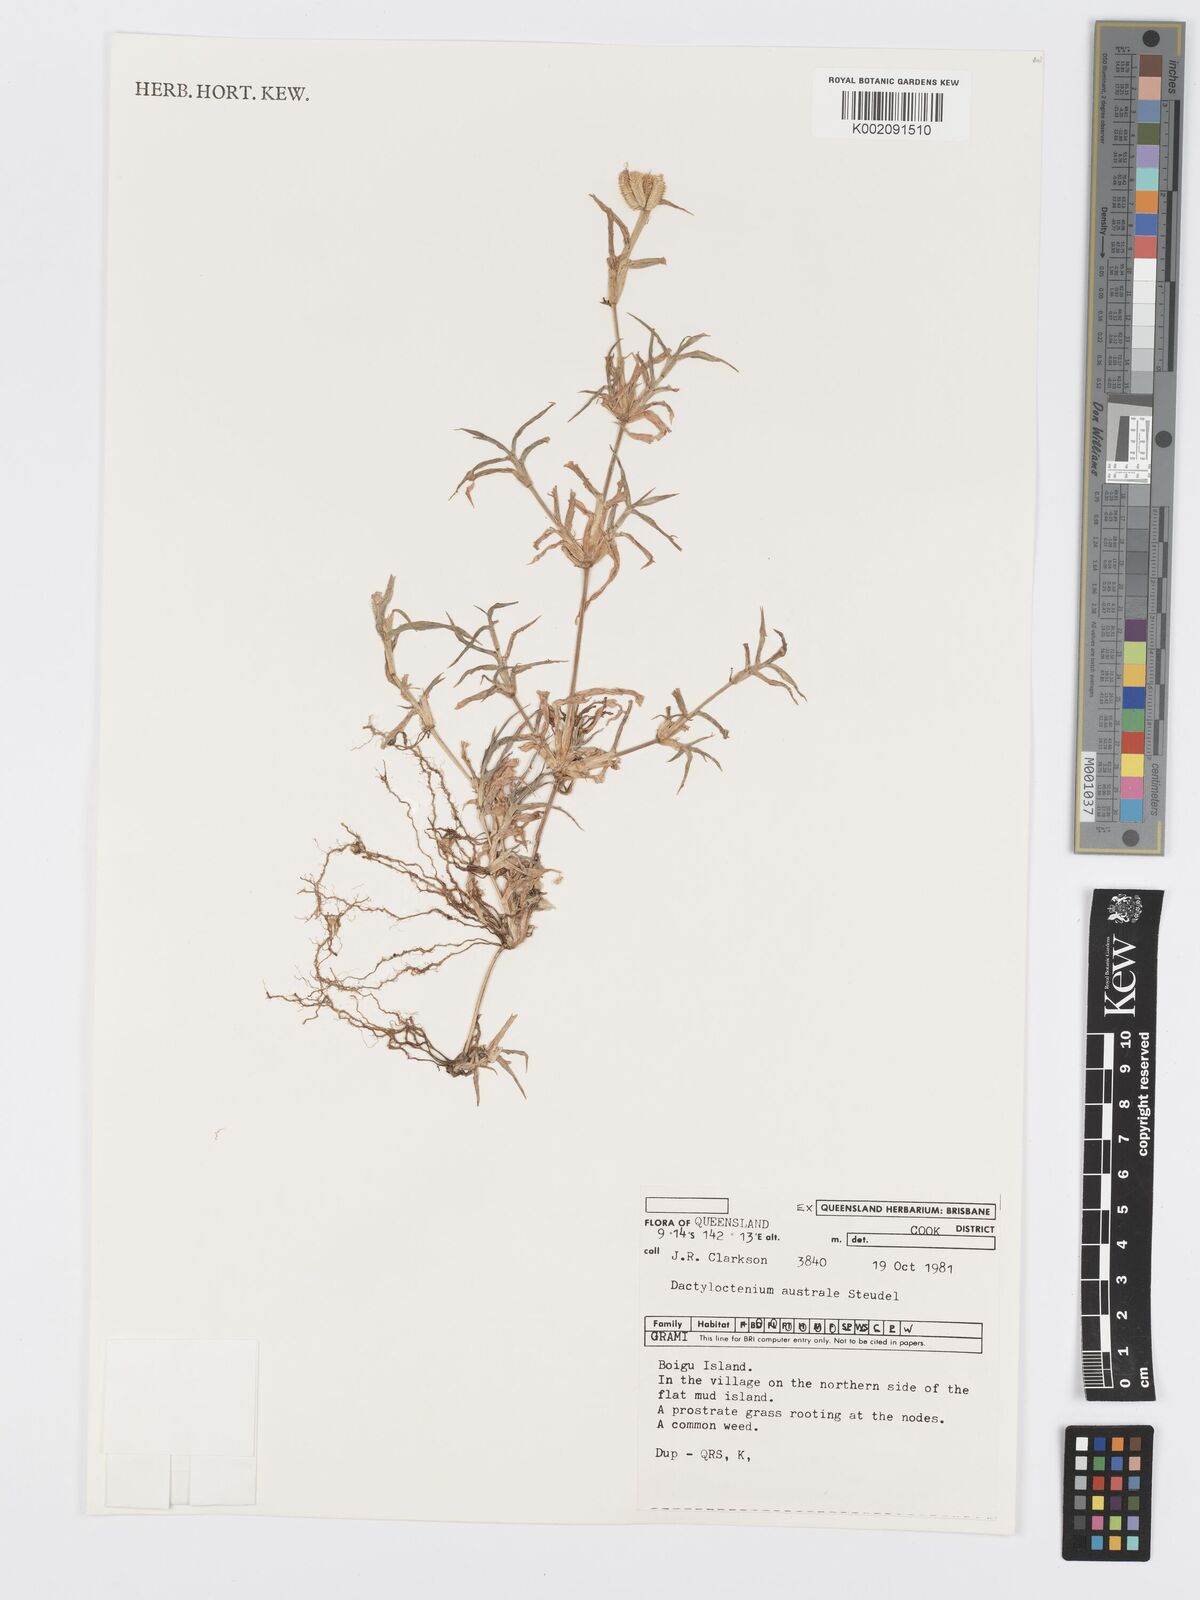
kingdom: Plantae
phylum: Tracheophyta
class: Liliopsida
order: Poales
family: Poaceae
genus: Dactyloctenium
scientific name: Dactyloctenium aegyptium
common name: Egyptian grass
